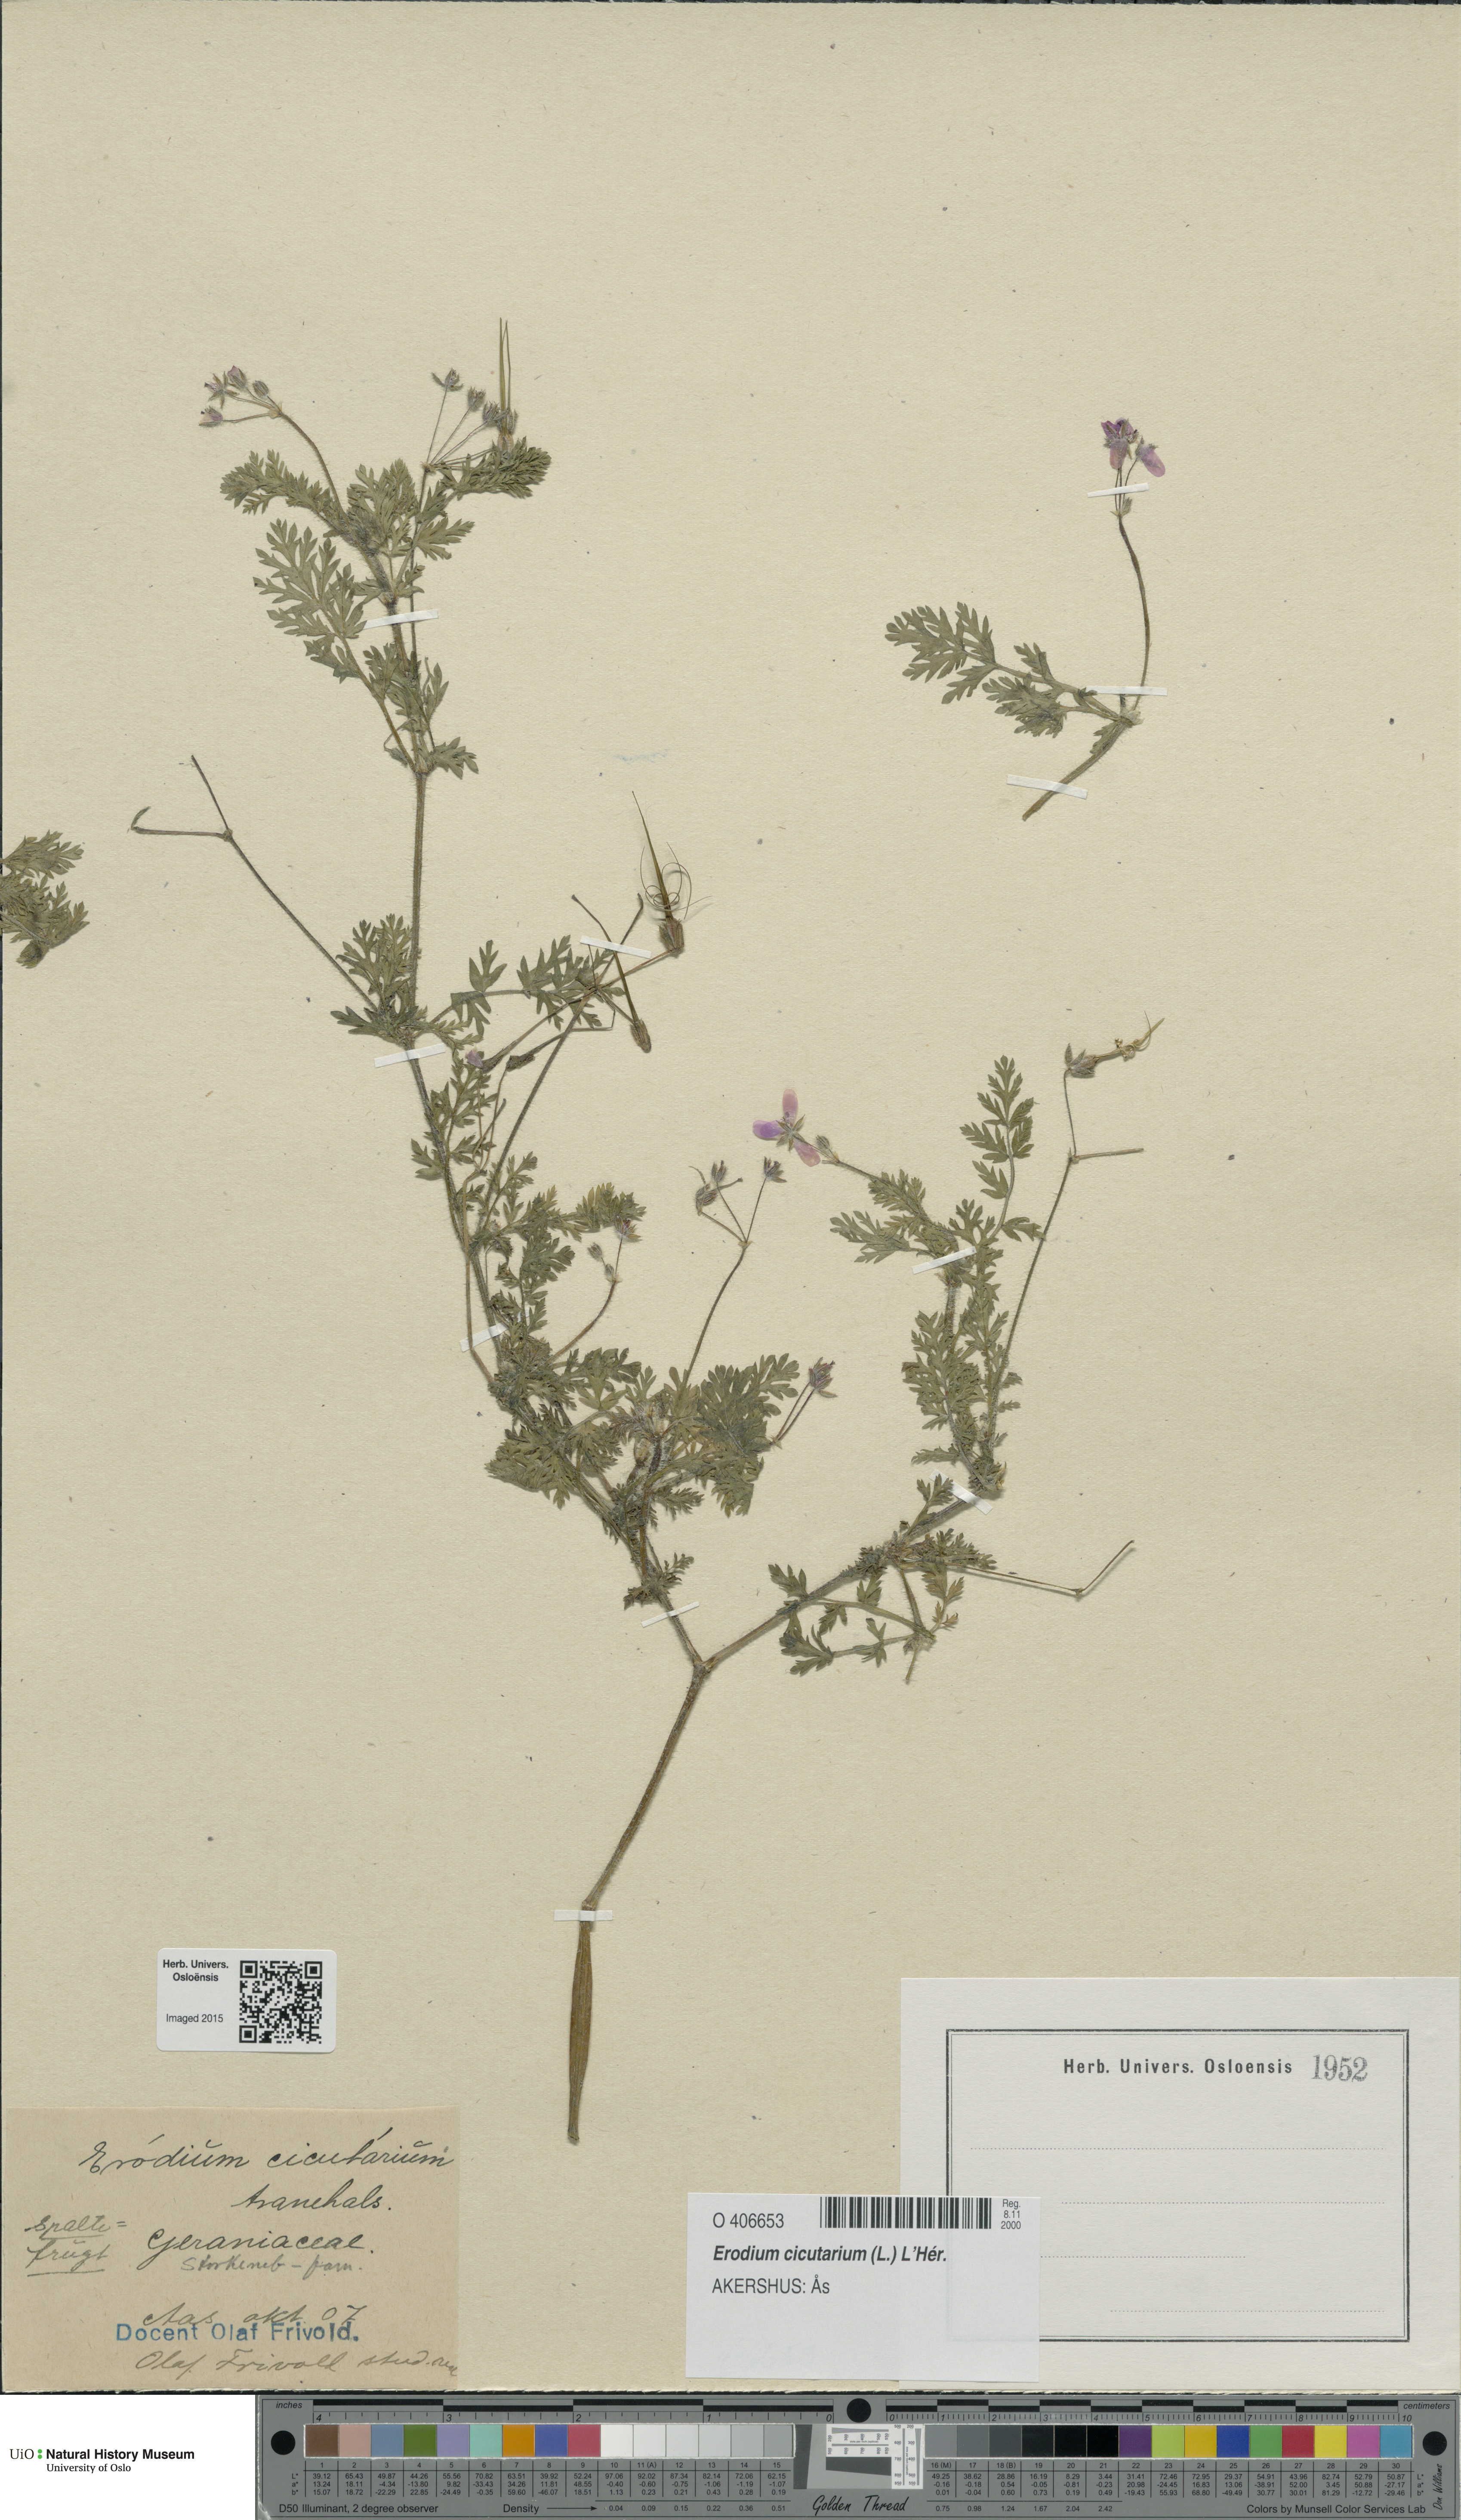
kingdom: Plantae
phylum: Tracheophyta
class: Magnoliopsida
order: Geraniales
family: Geraniaceae
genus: Erodium
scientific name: Erodium cicutarium
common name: Common stork's-bill
